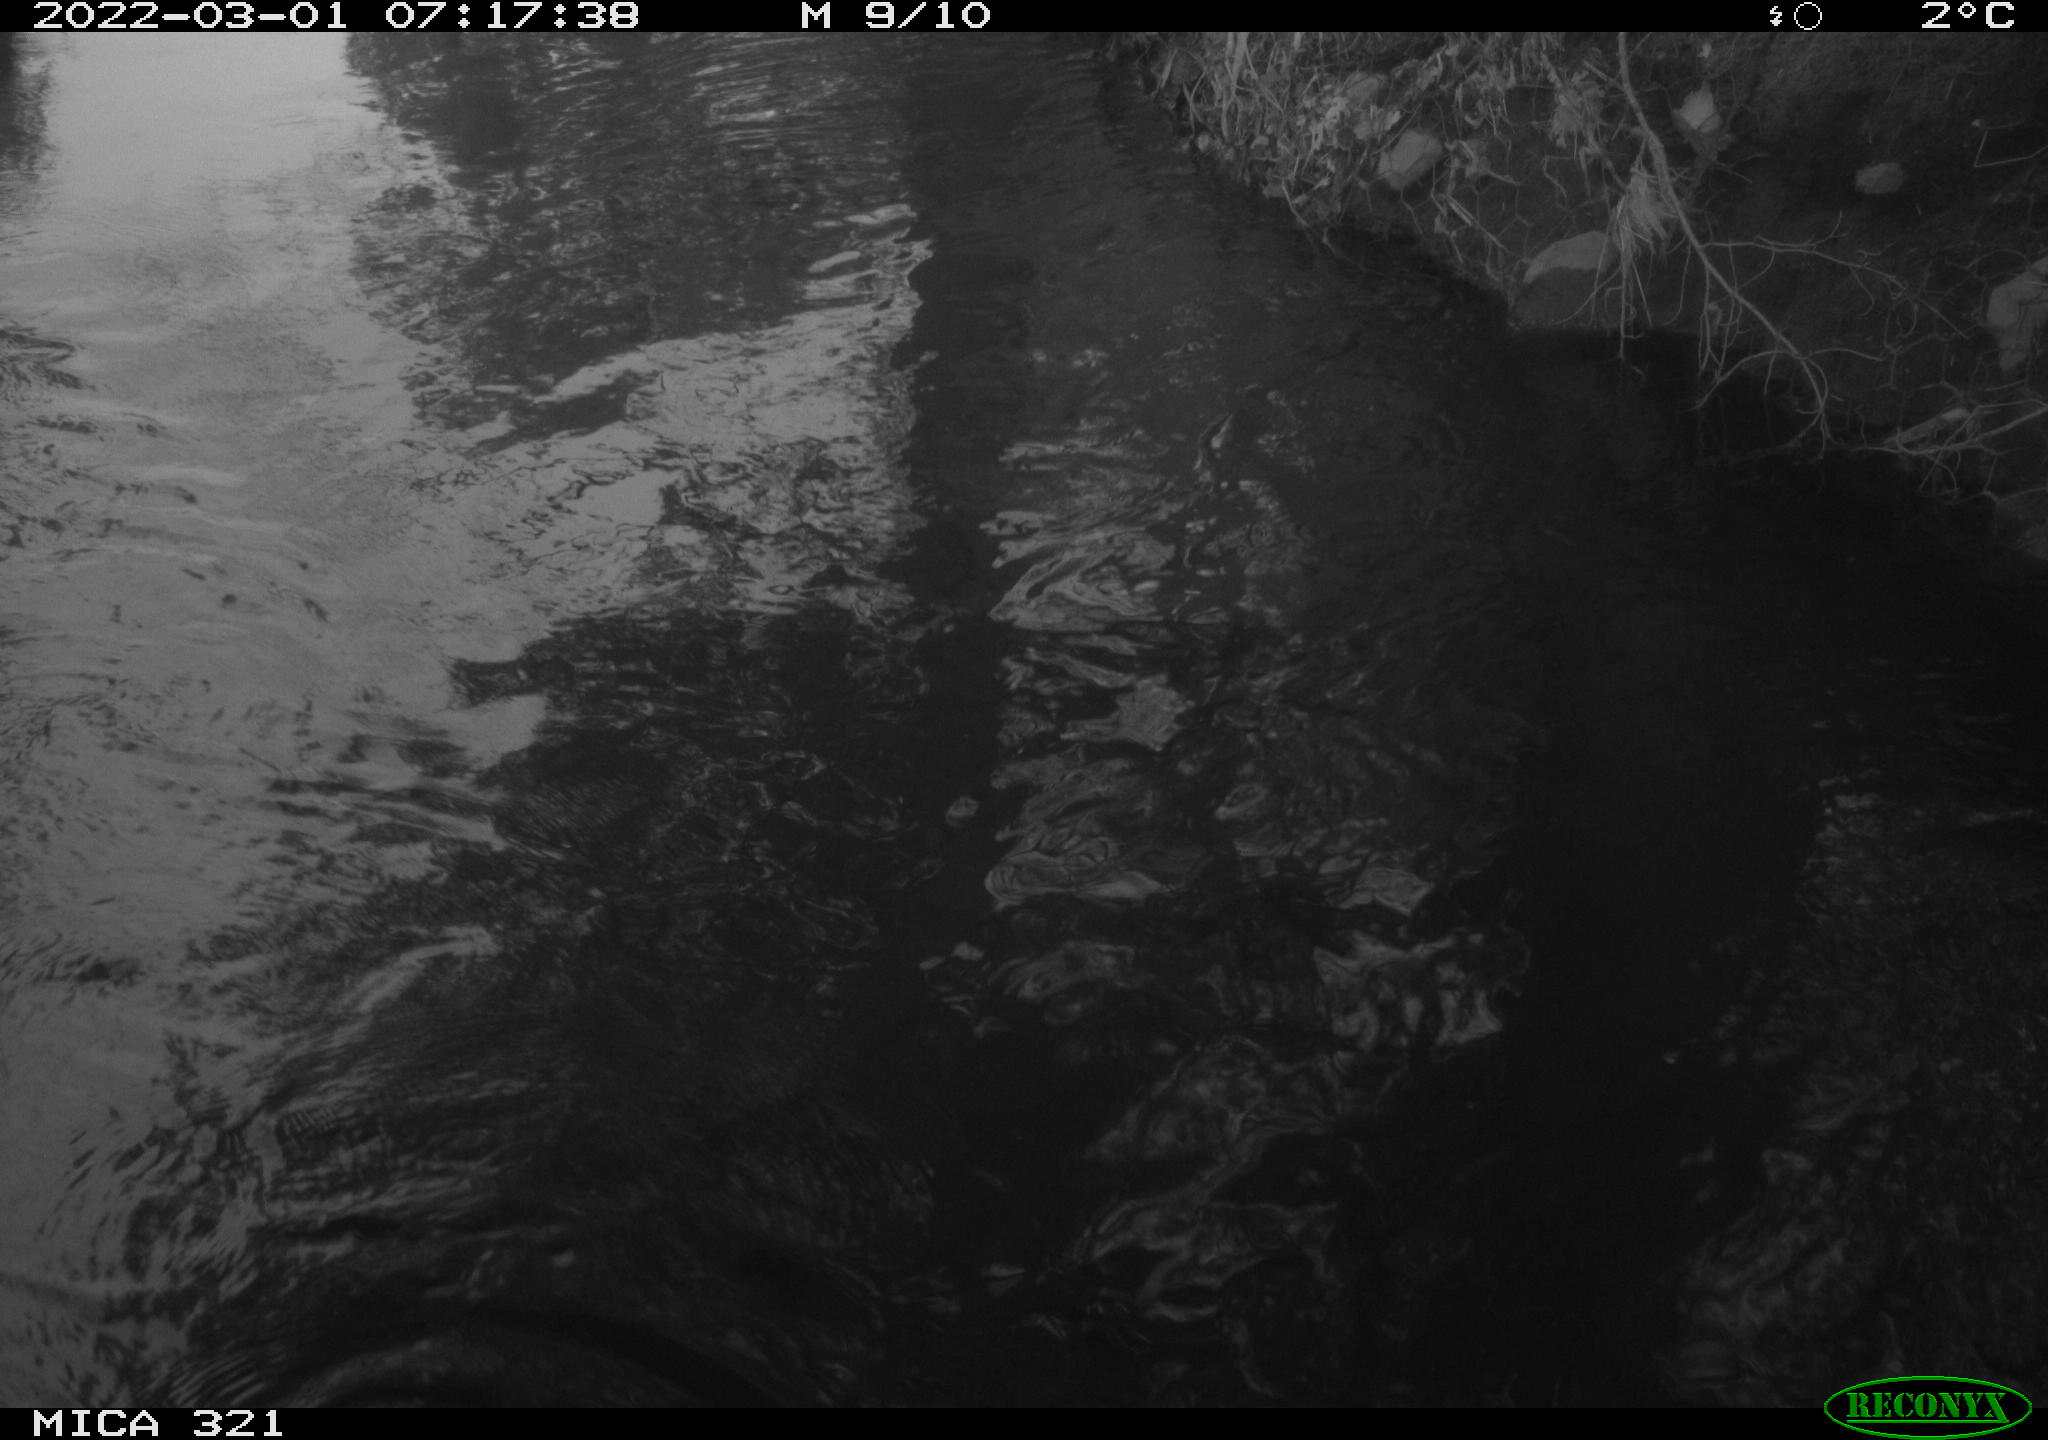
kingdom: Animalia
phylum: Chordata
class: Aves
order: Suliformes
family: Phalacrocoracidae
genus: Phalacrocorax
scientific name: Phalacrocorax carbo
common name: Great cormorant
